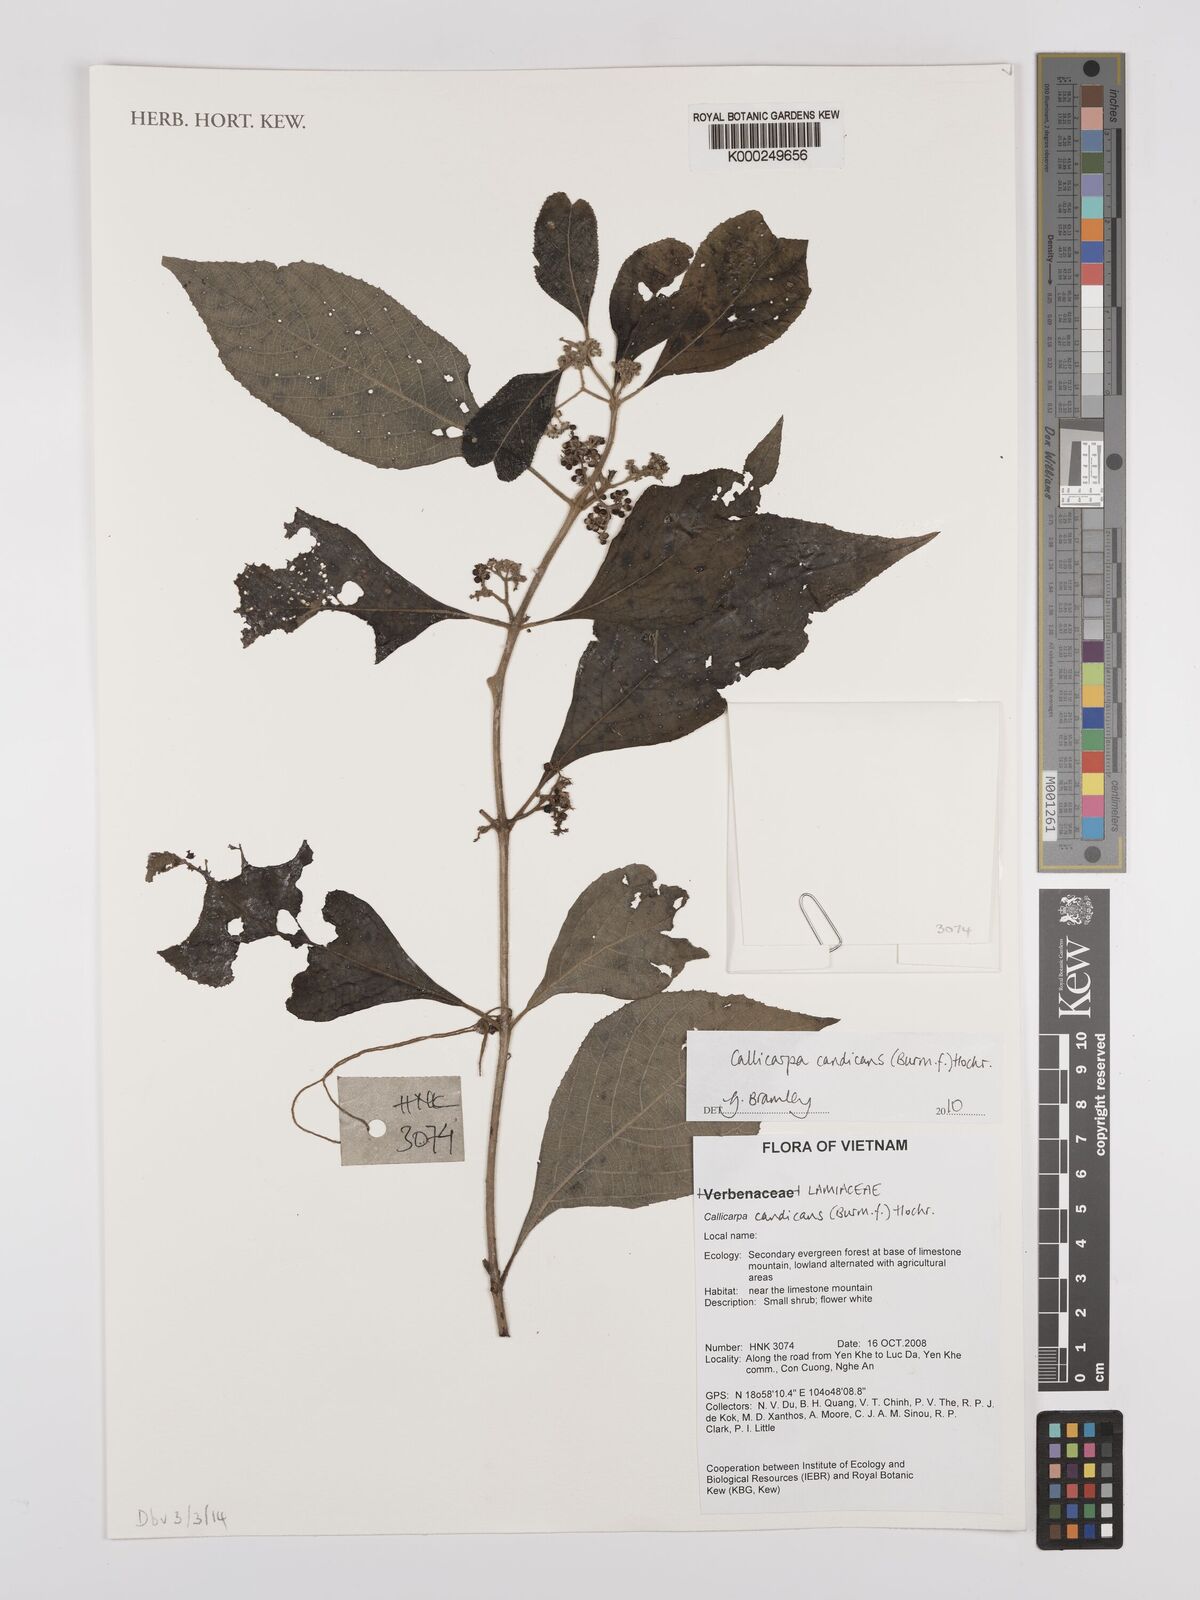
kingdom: Plantae
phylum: Tracheophyta
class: Magnoliopsida
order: Lamiales
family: Lamiaceae
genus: Callicarpa
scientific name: Callicarpa candicans
